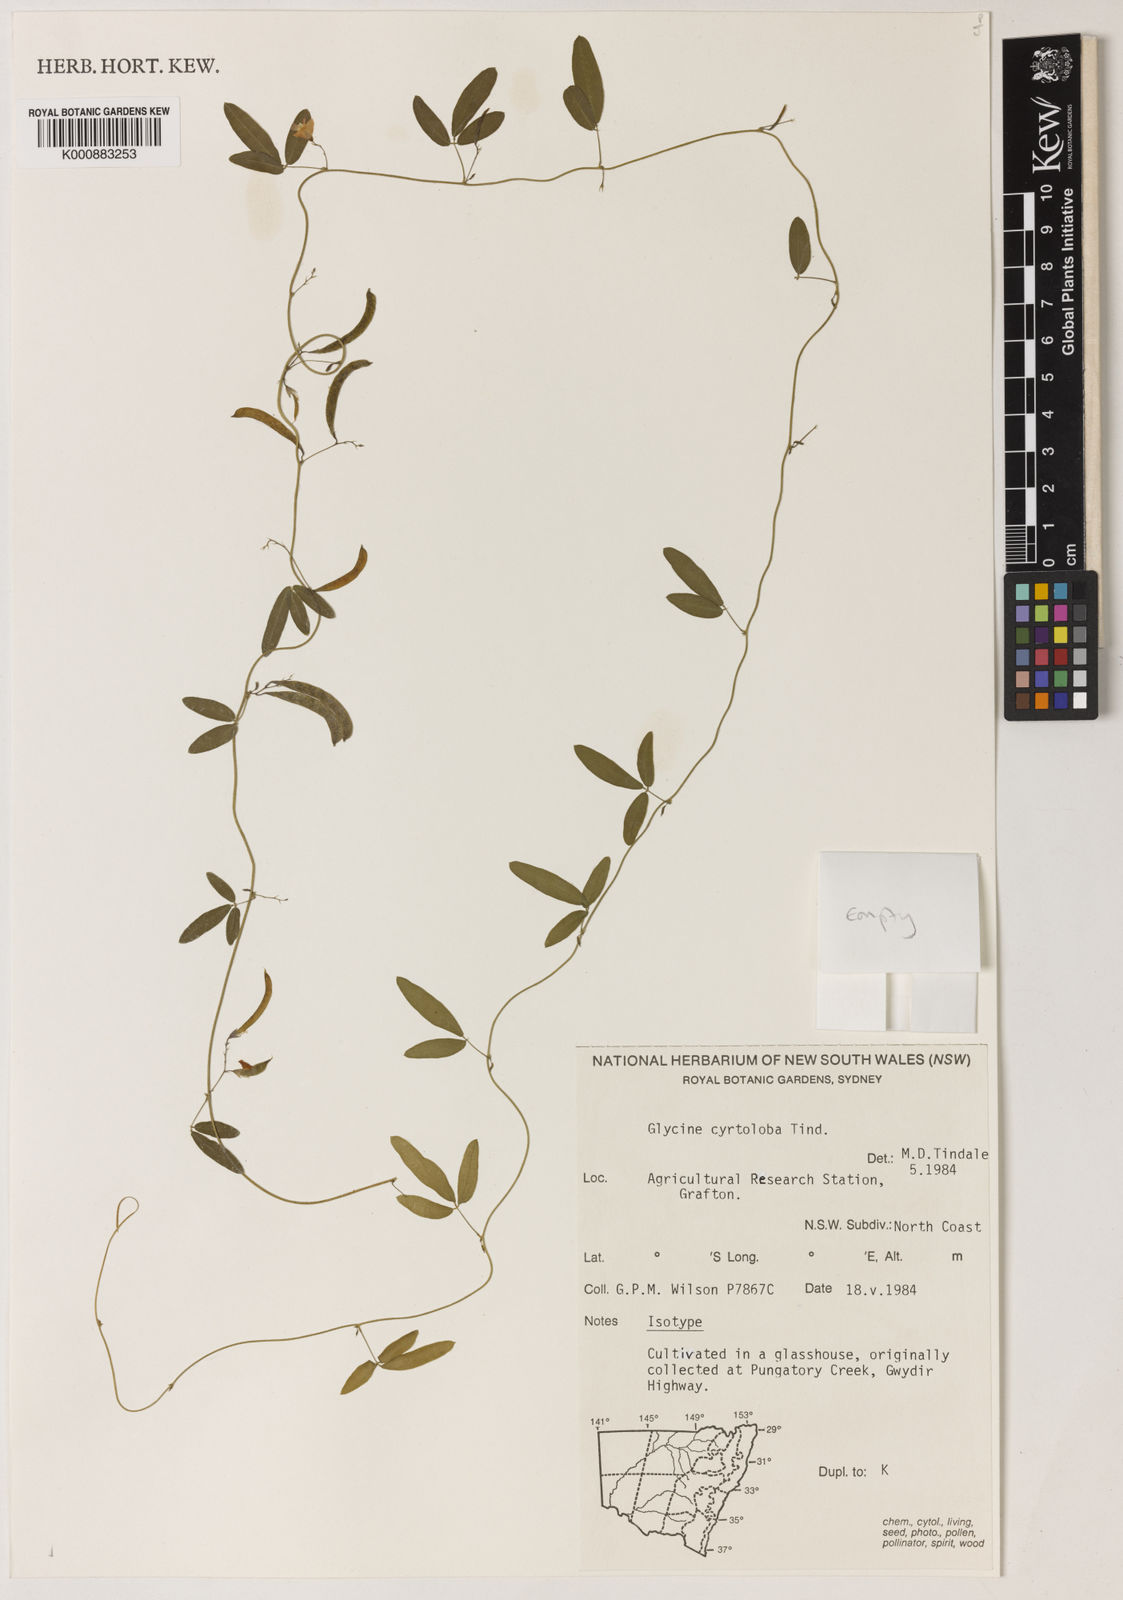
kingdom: Plantae
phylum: Tracheophyta
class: Magnoliopsida
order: Fabales
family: Fabaceae
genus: Glycine
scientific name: Glycine cyrtoloba
